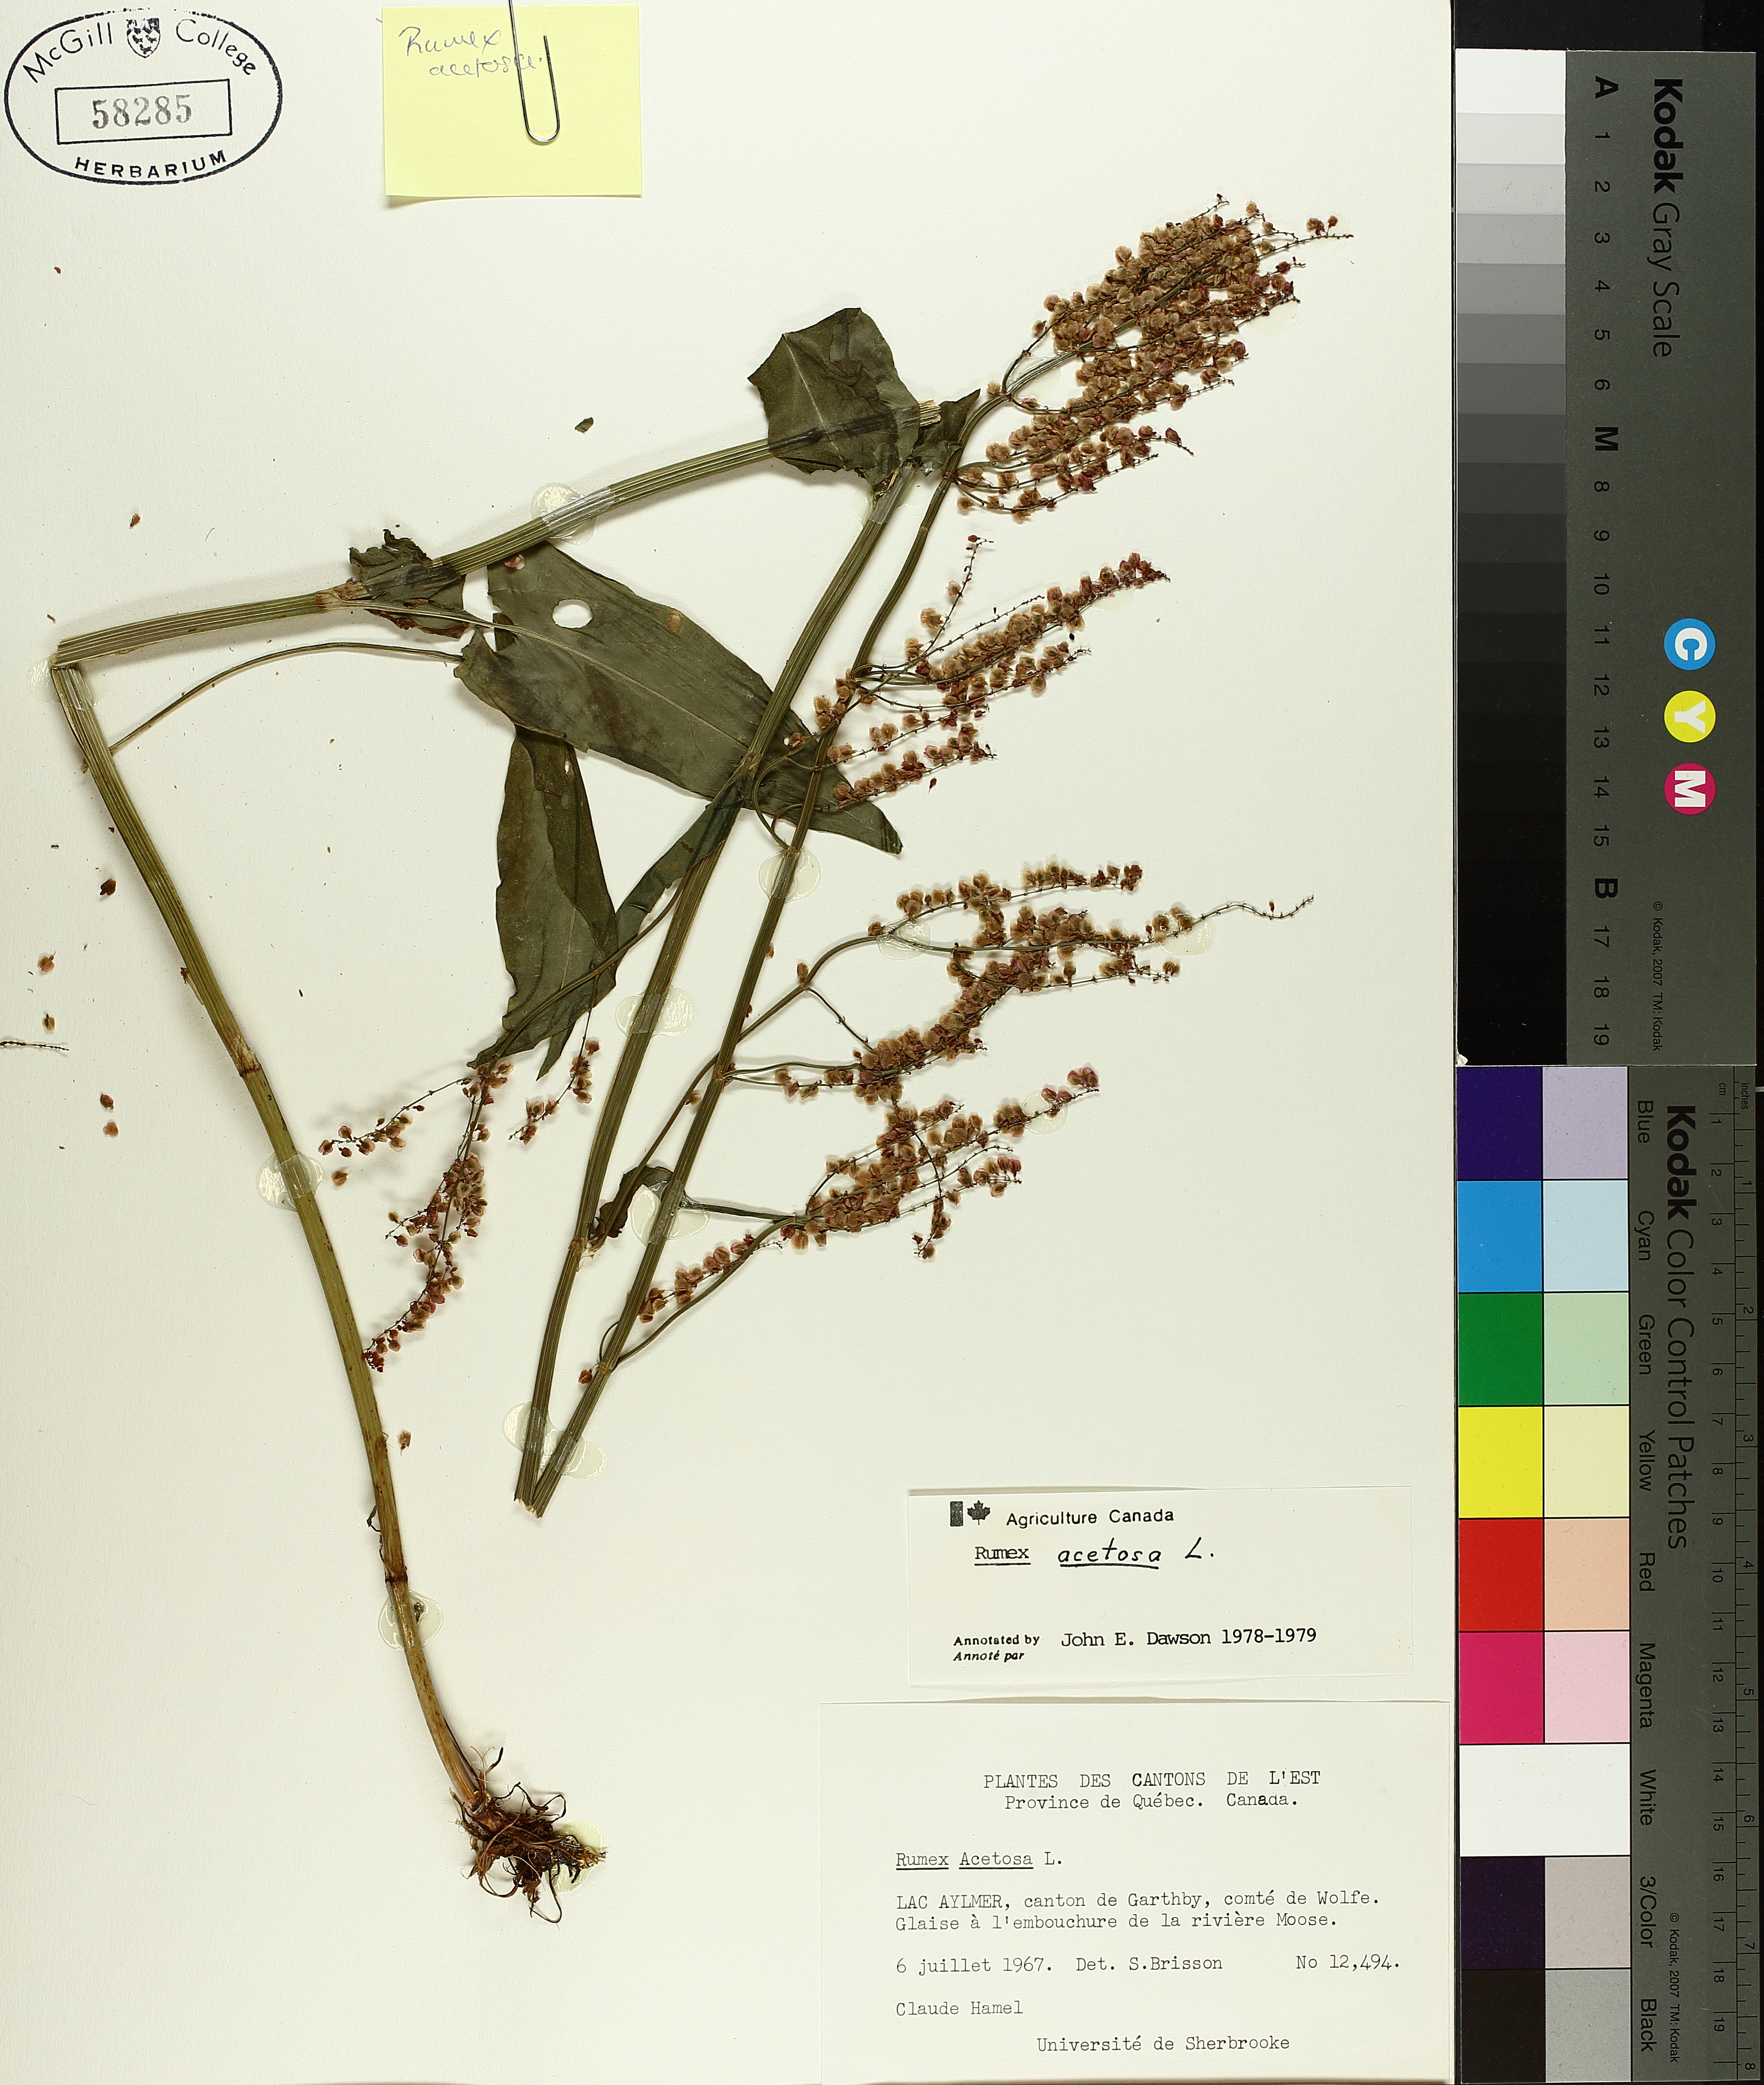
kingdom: Plantae
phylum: Tracheophyta
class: Magnoliopsida
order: Caryophyllales
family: Polygonaceae
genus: Rumex
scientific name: Rumex acetosa
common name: Garden sorrel
